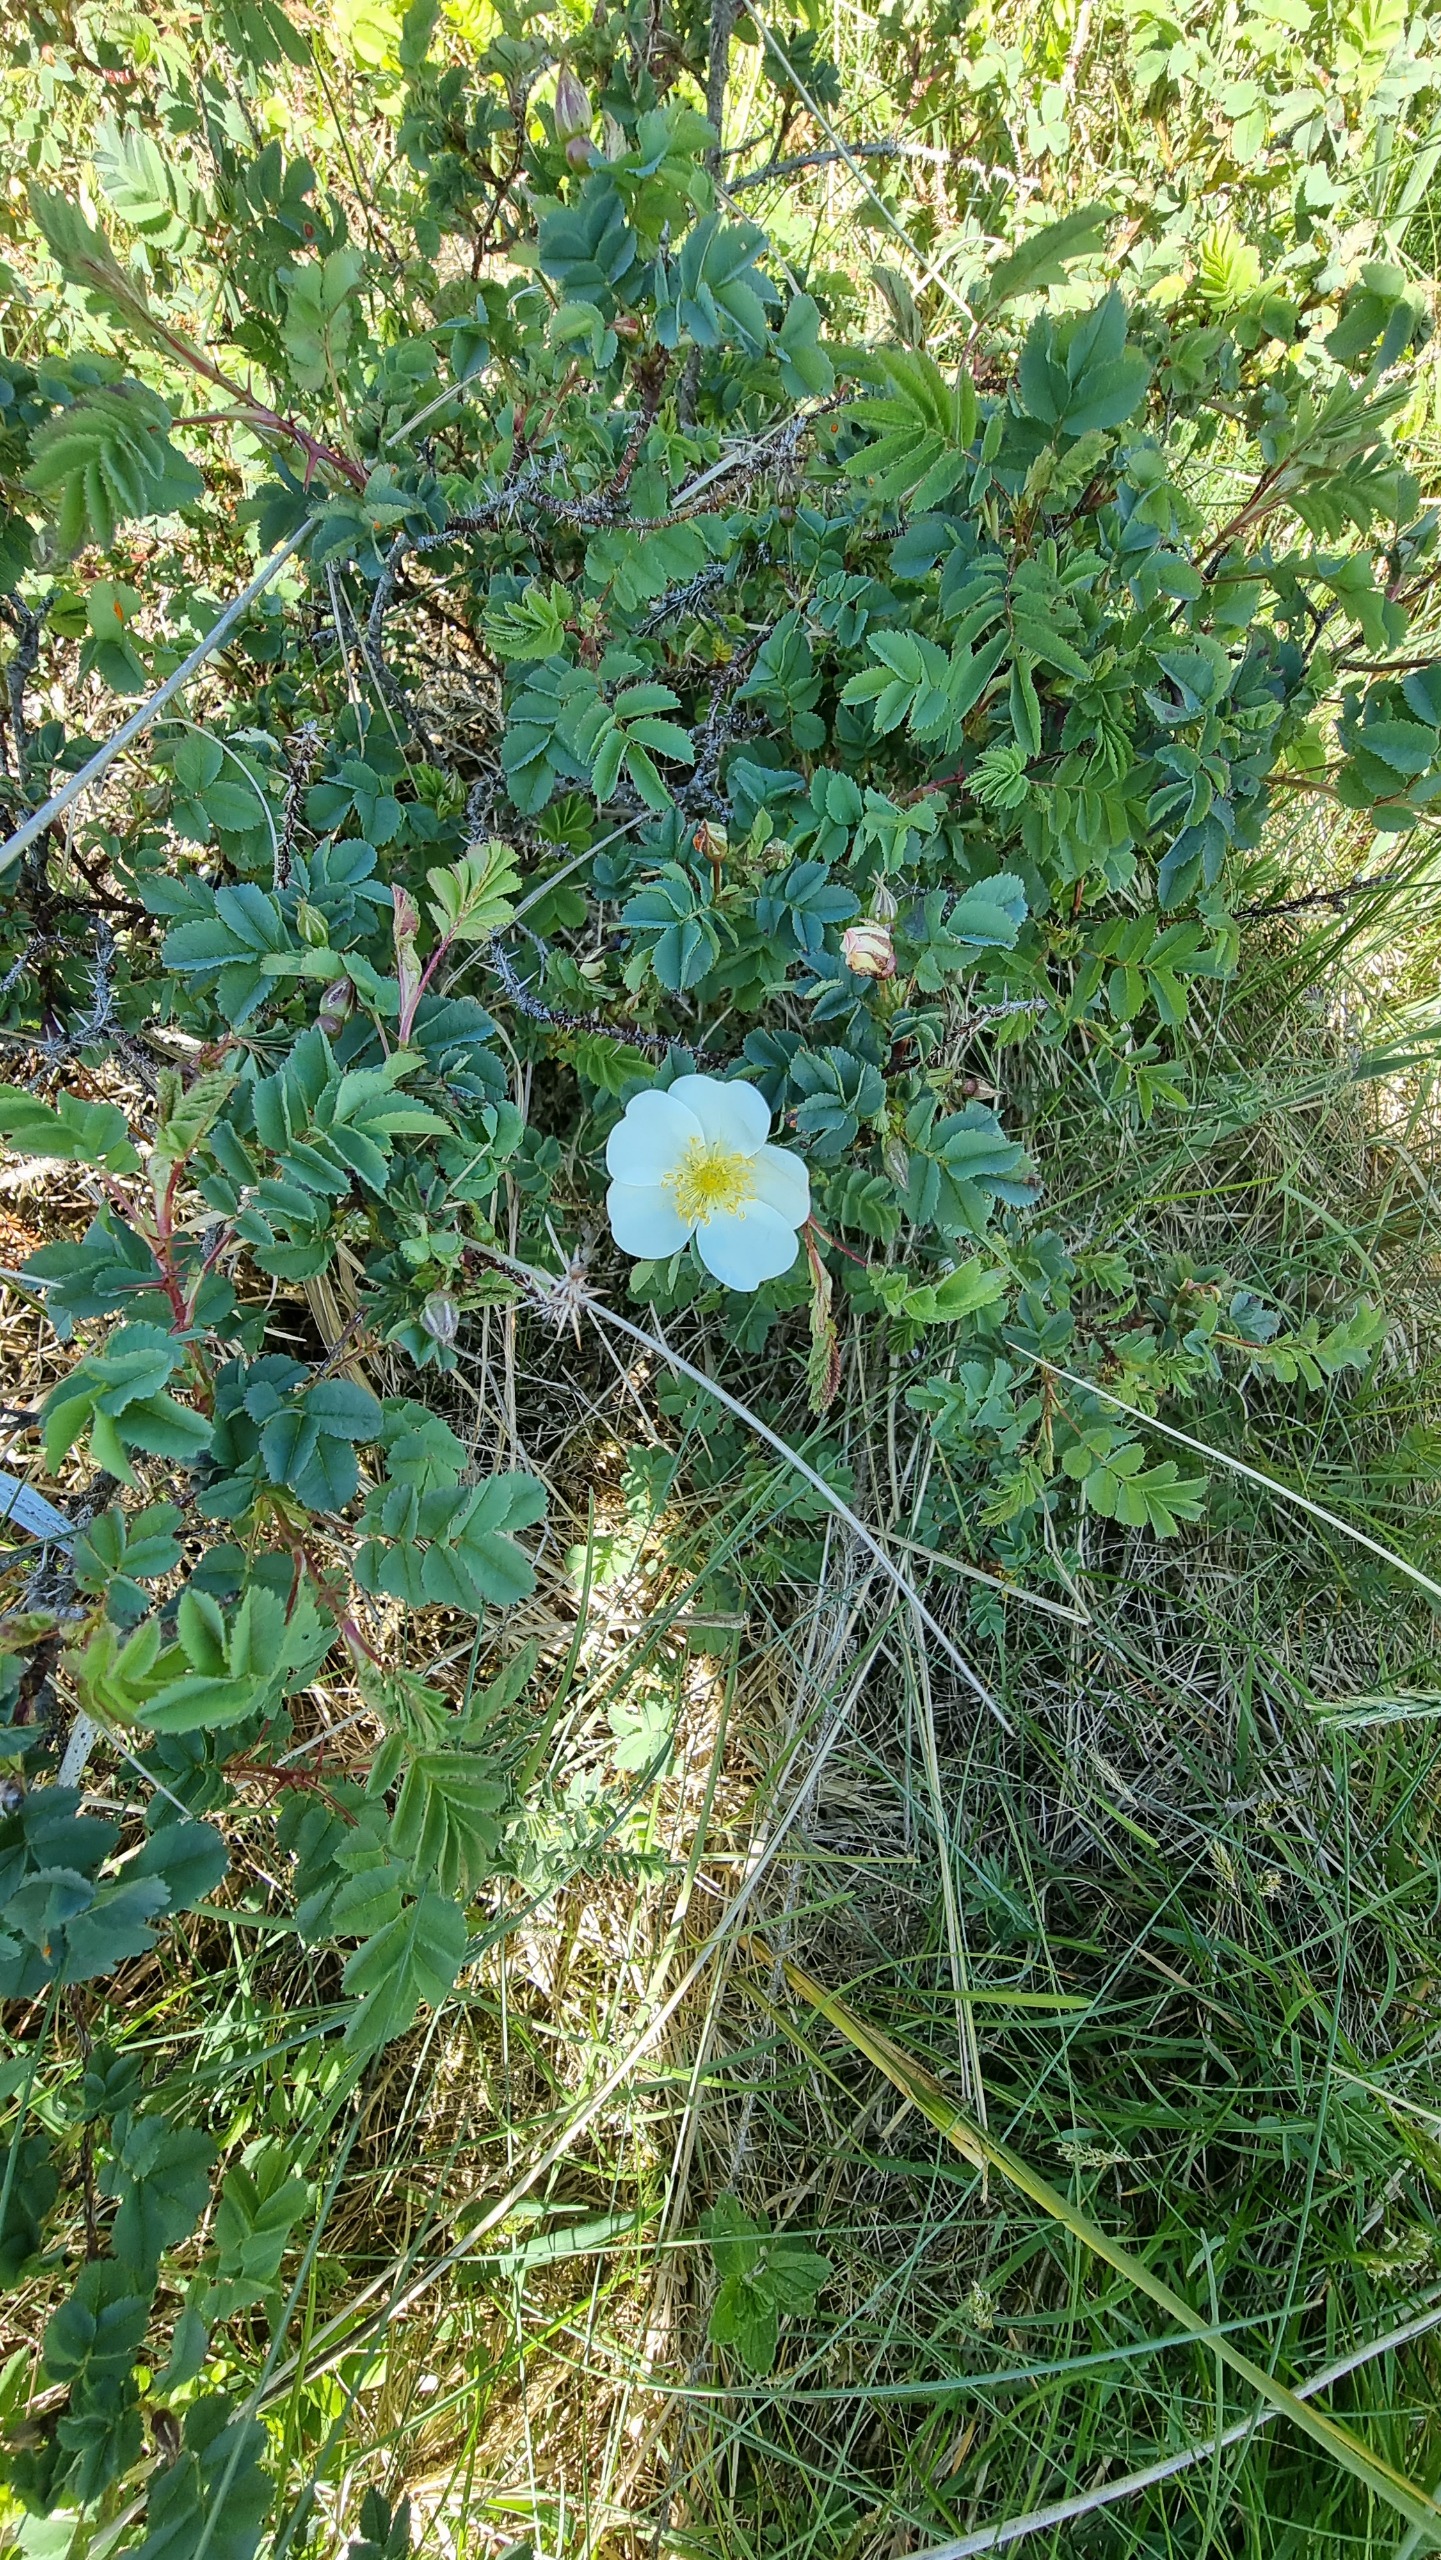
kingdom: Plantae
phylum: Tracheophyta
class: Magnoliopsida
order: Rosales
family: Rosaceae
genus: Rosa
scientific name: Rosa spinosissima
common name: Klit-rose
